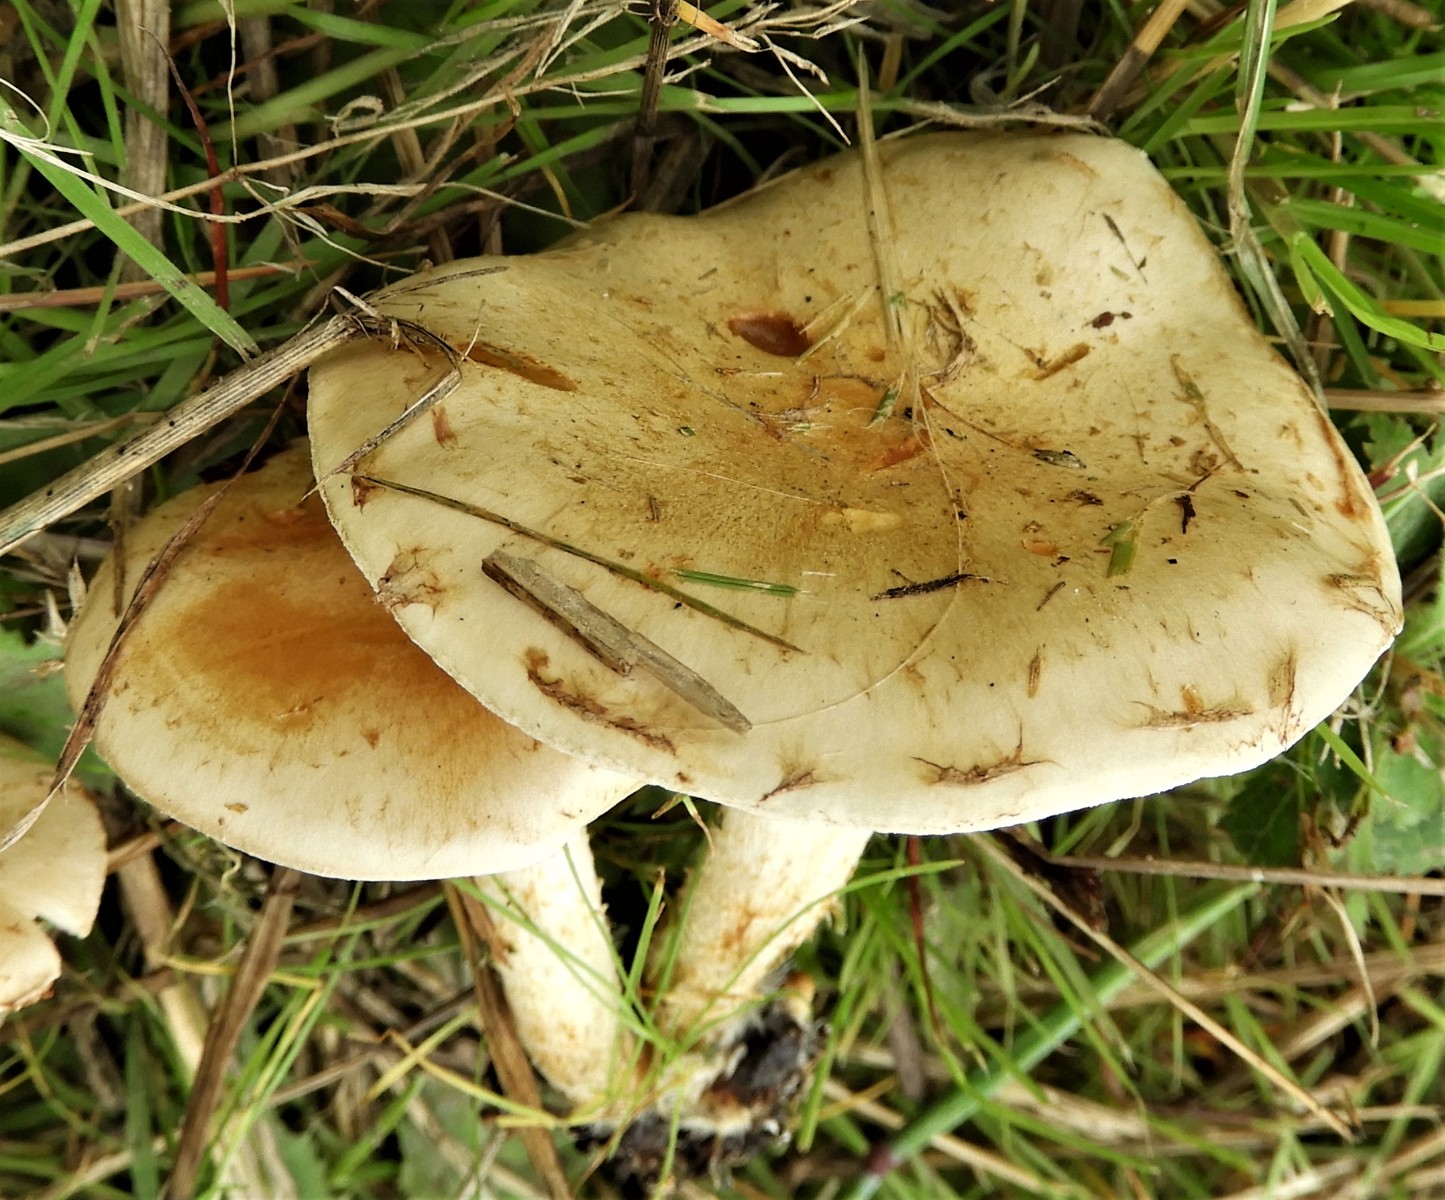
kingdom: Fungi
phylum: Basidiomycota
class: Agaricomycetes
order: Agaricales
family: Strophariaceae
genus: Pholiota
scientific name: Pholiota gummosa
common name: grøngul skælhat
